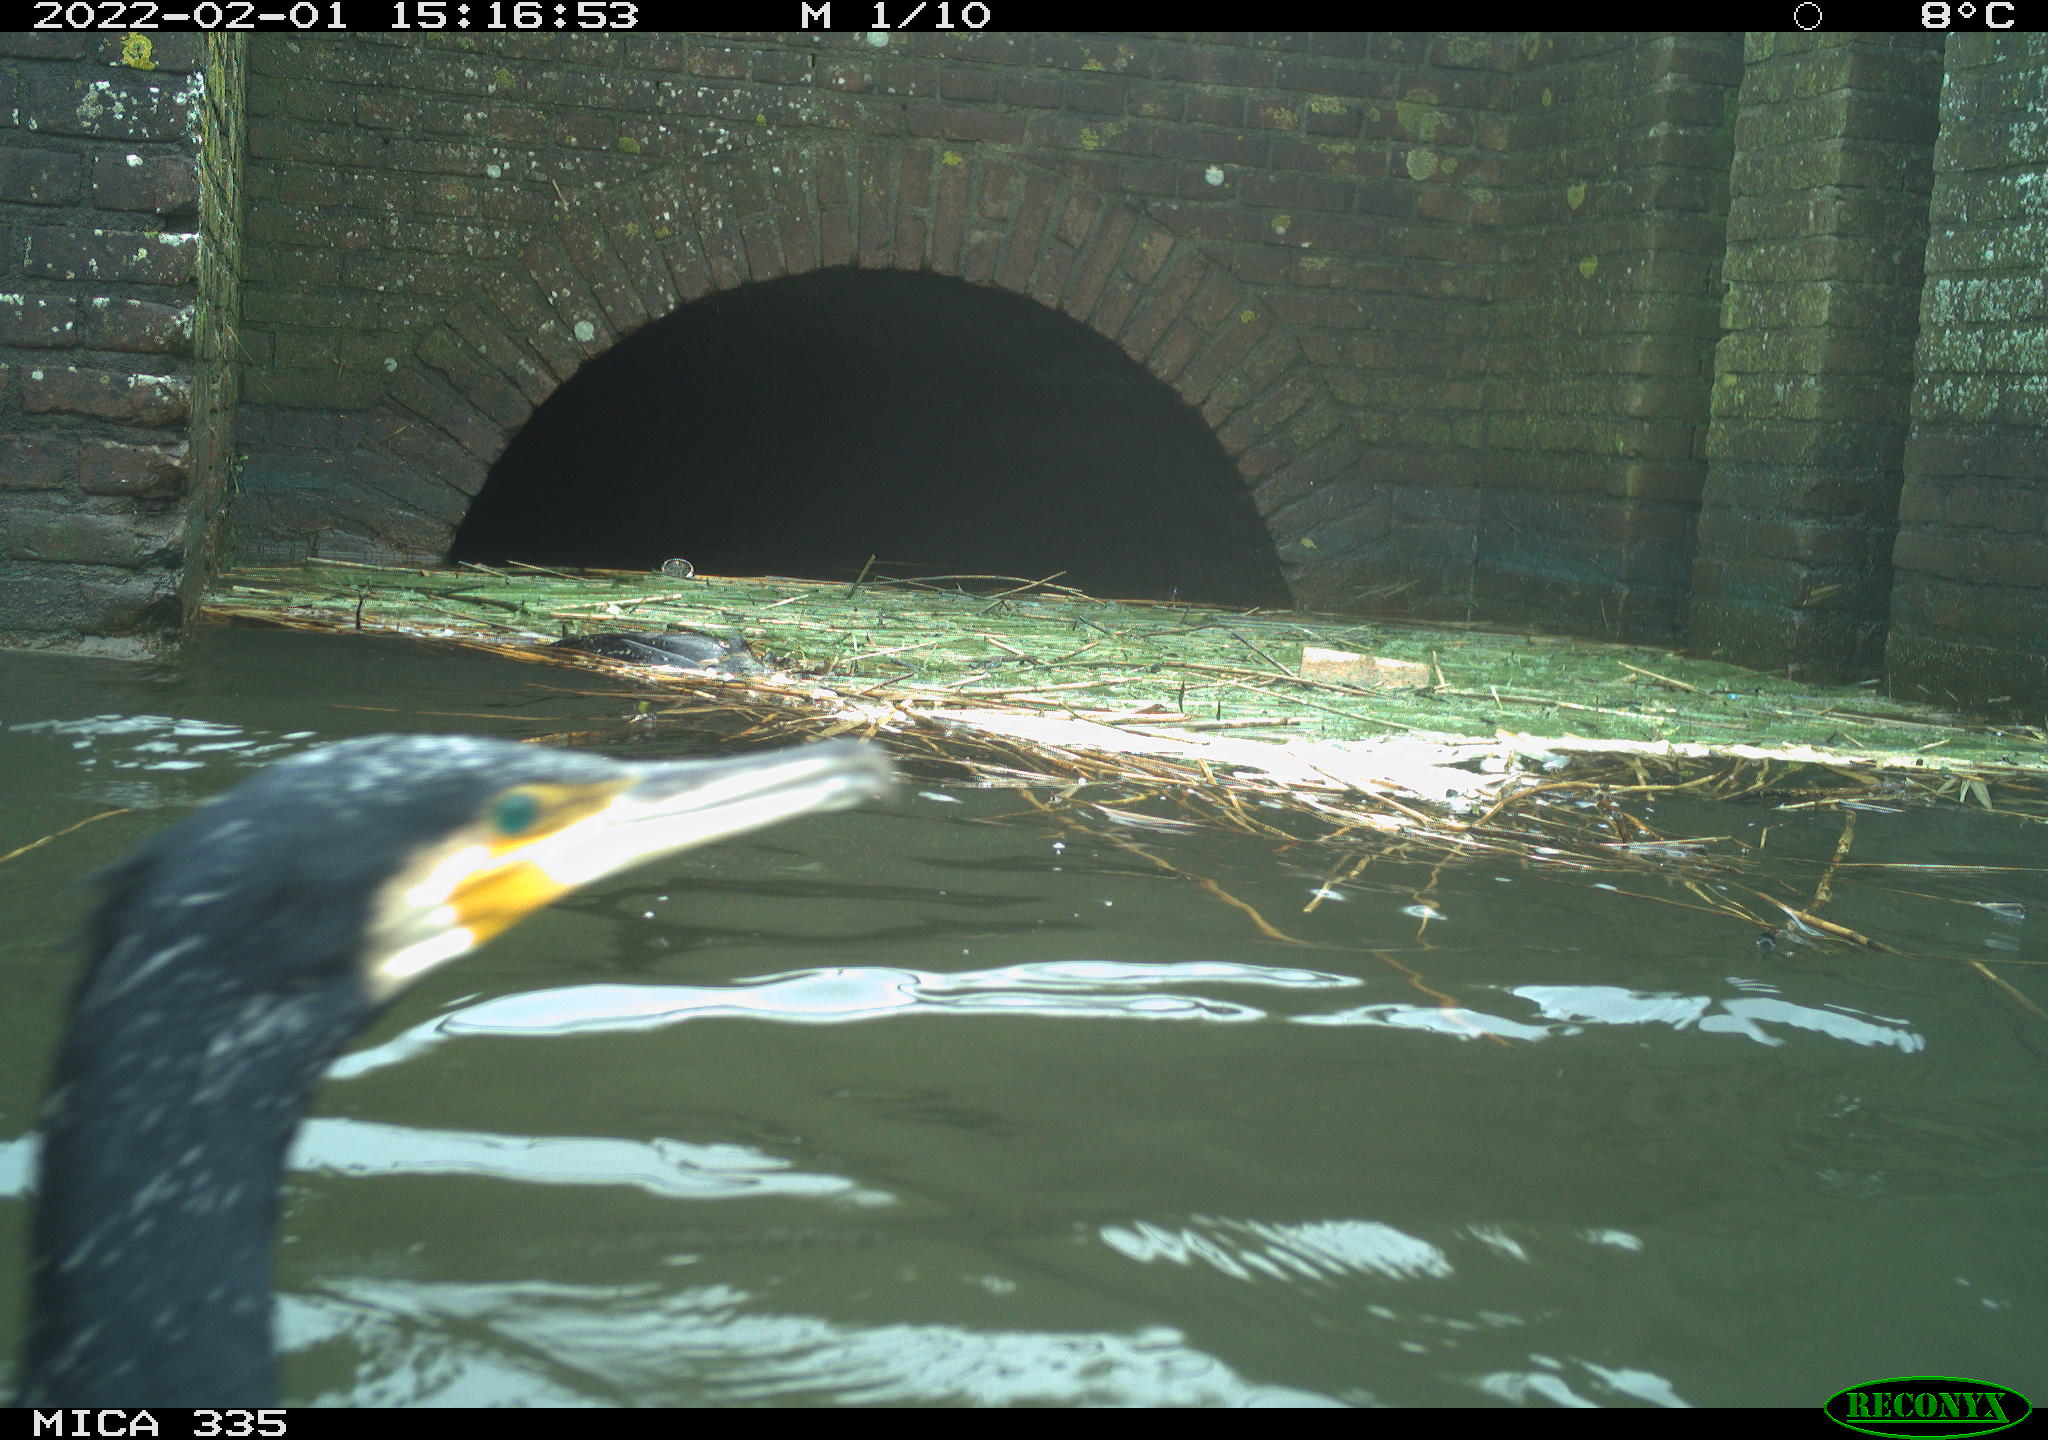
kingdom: Animalia
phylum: Chordata
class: Aves
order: Suliformes
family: Phalacrocoracidae
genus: Phalacrocorax
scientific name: Phalacrocorax carbo
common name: Great cormorant
